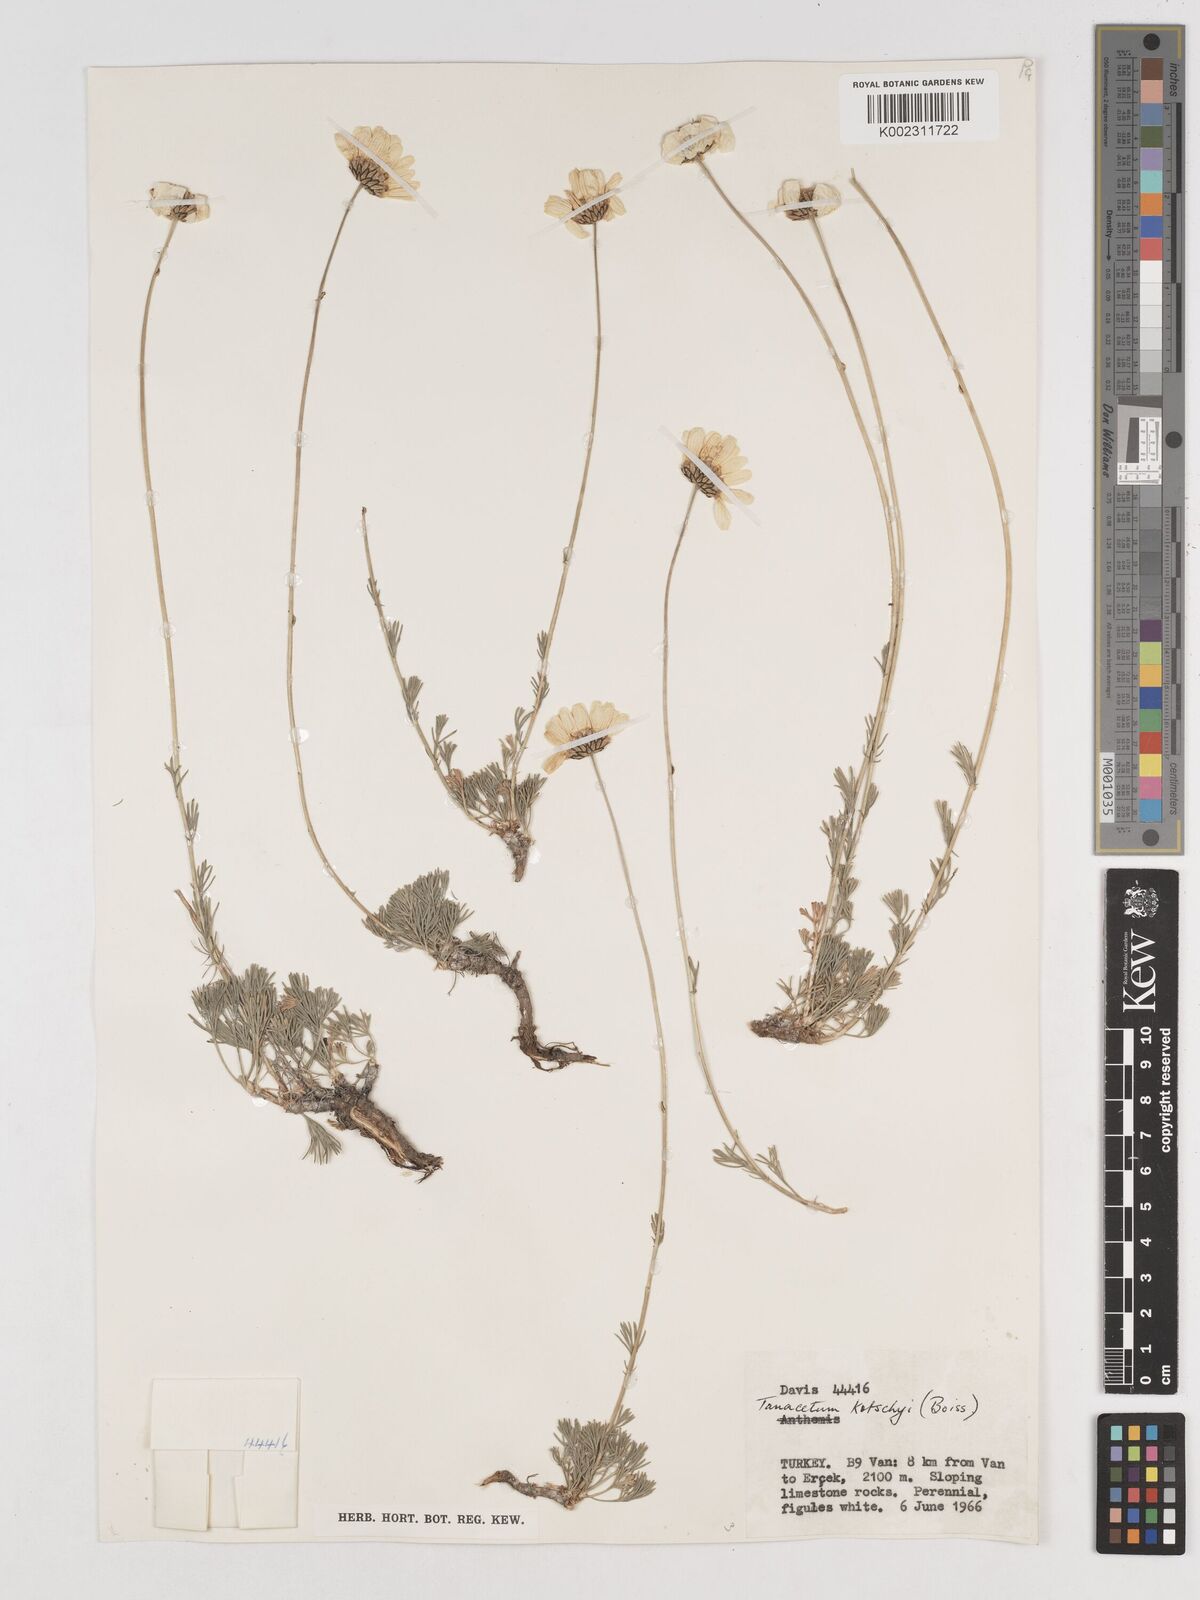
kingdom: Plantae
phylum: Tracheophyta
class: Magnoliopsida
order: Asterales
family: Asteraceae
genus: Tanacetum
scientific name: Tanacetum kotschyi
